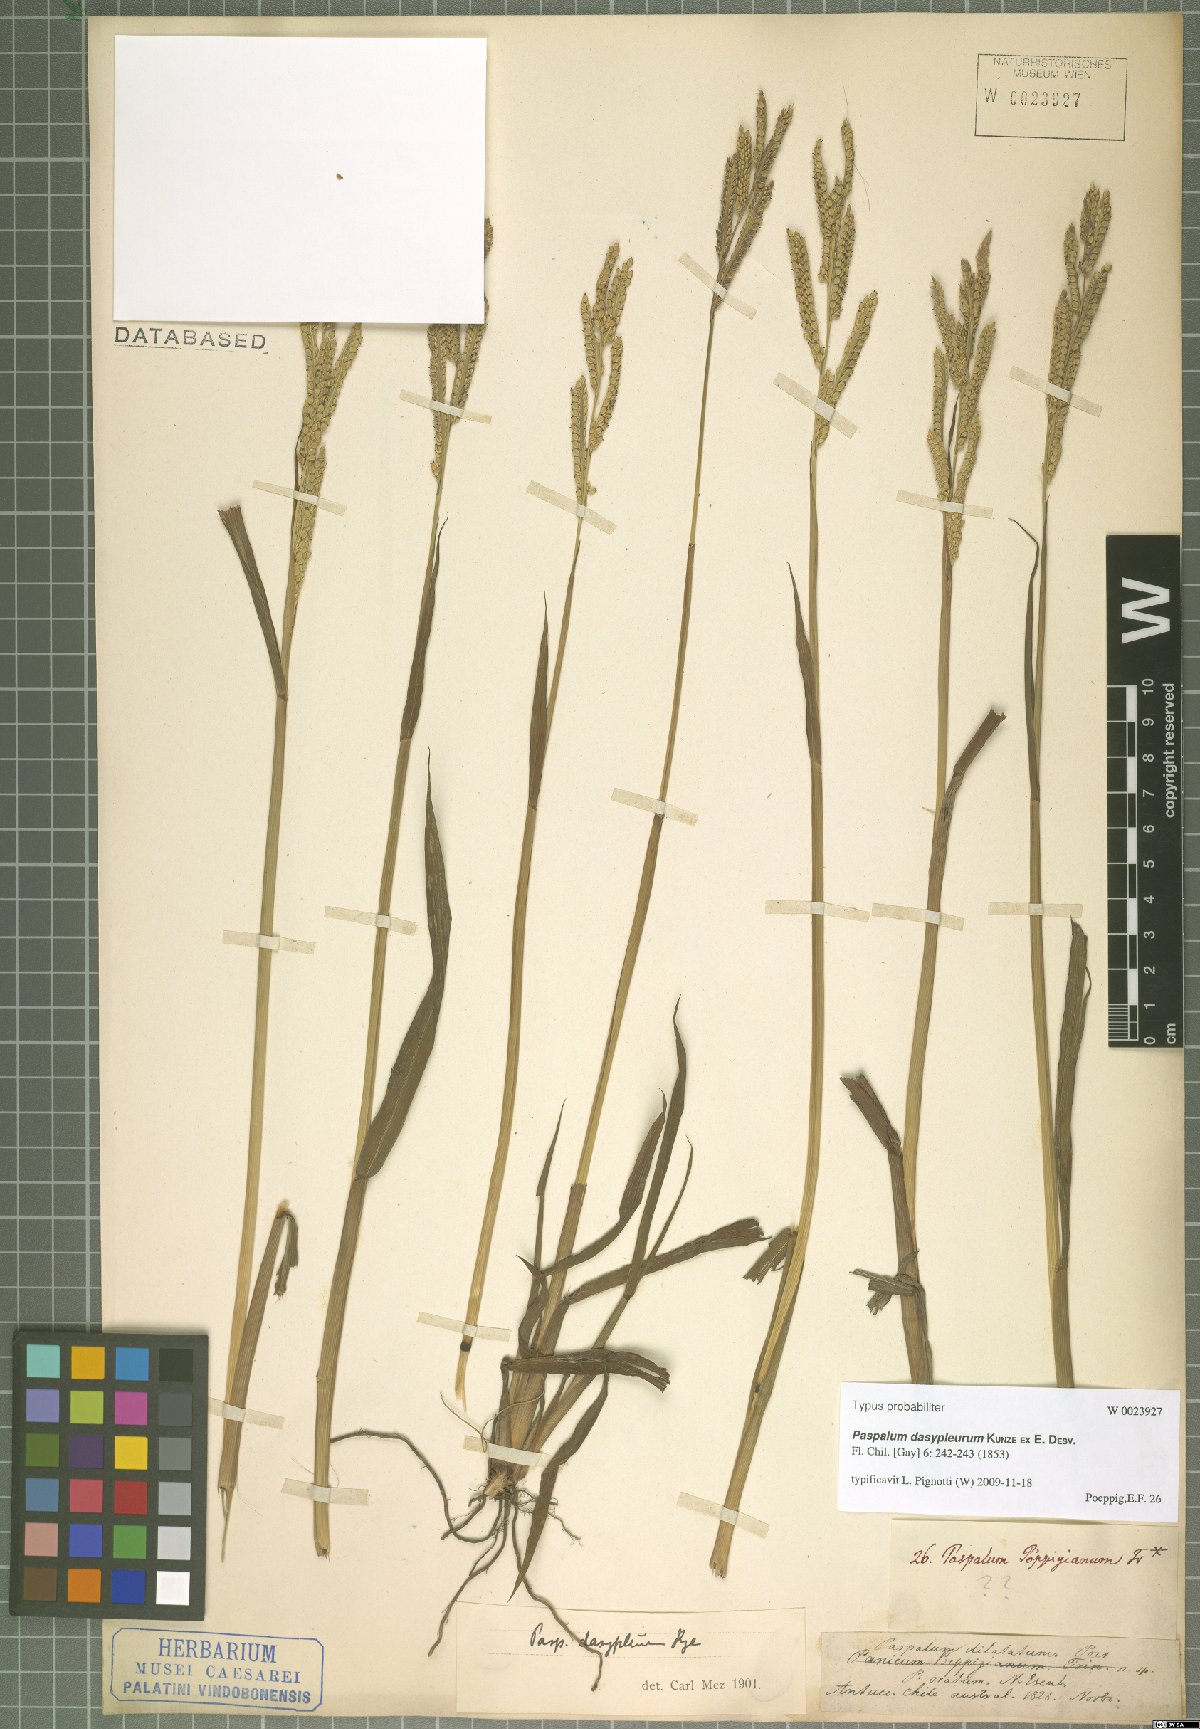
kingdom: Plantae
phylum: Tracheophyta
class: Liliopsida
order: Poales
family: Poaceae
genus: Paspalum
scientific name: Paspalum dasypleurum
